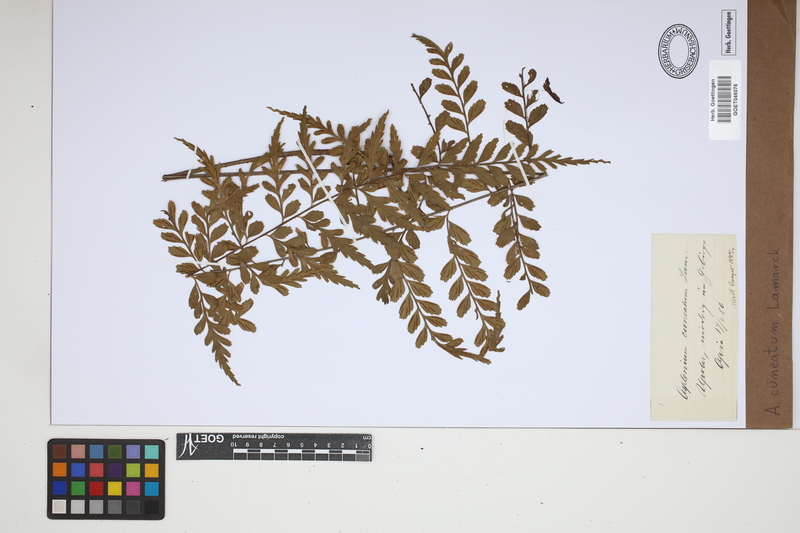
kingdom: Plantae
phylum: Tracheophyta
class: Polypodiopsida
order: Polypodiales
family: Aspleniaceae
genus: Asplenium
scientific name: Asplenium cuneatum
